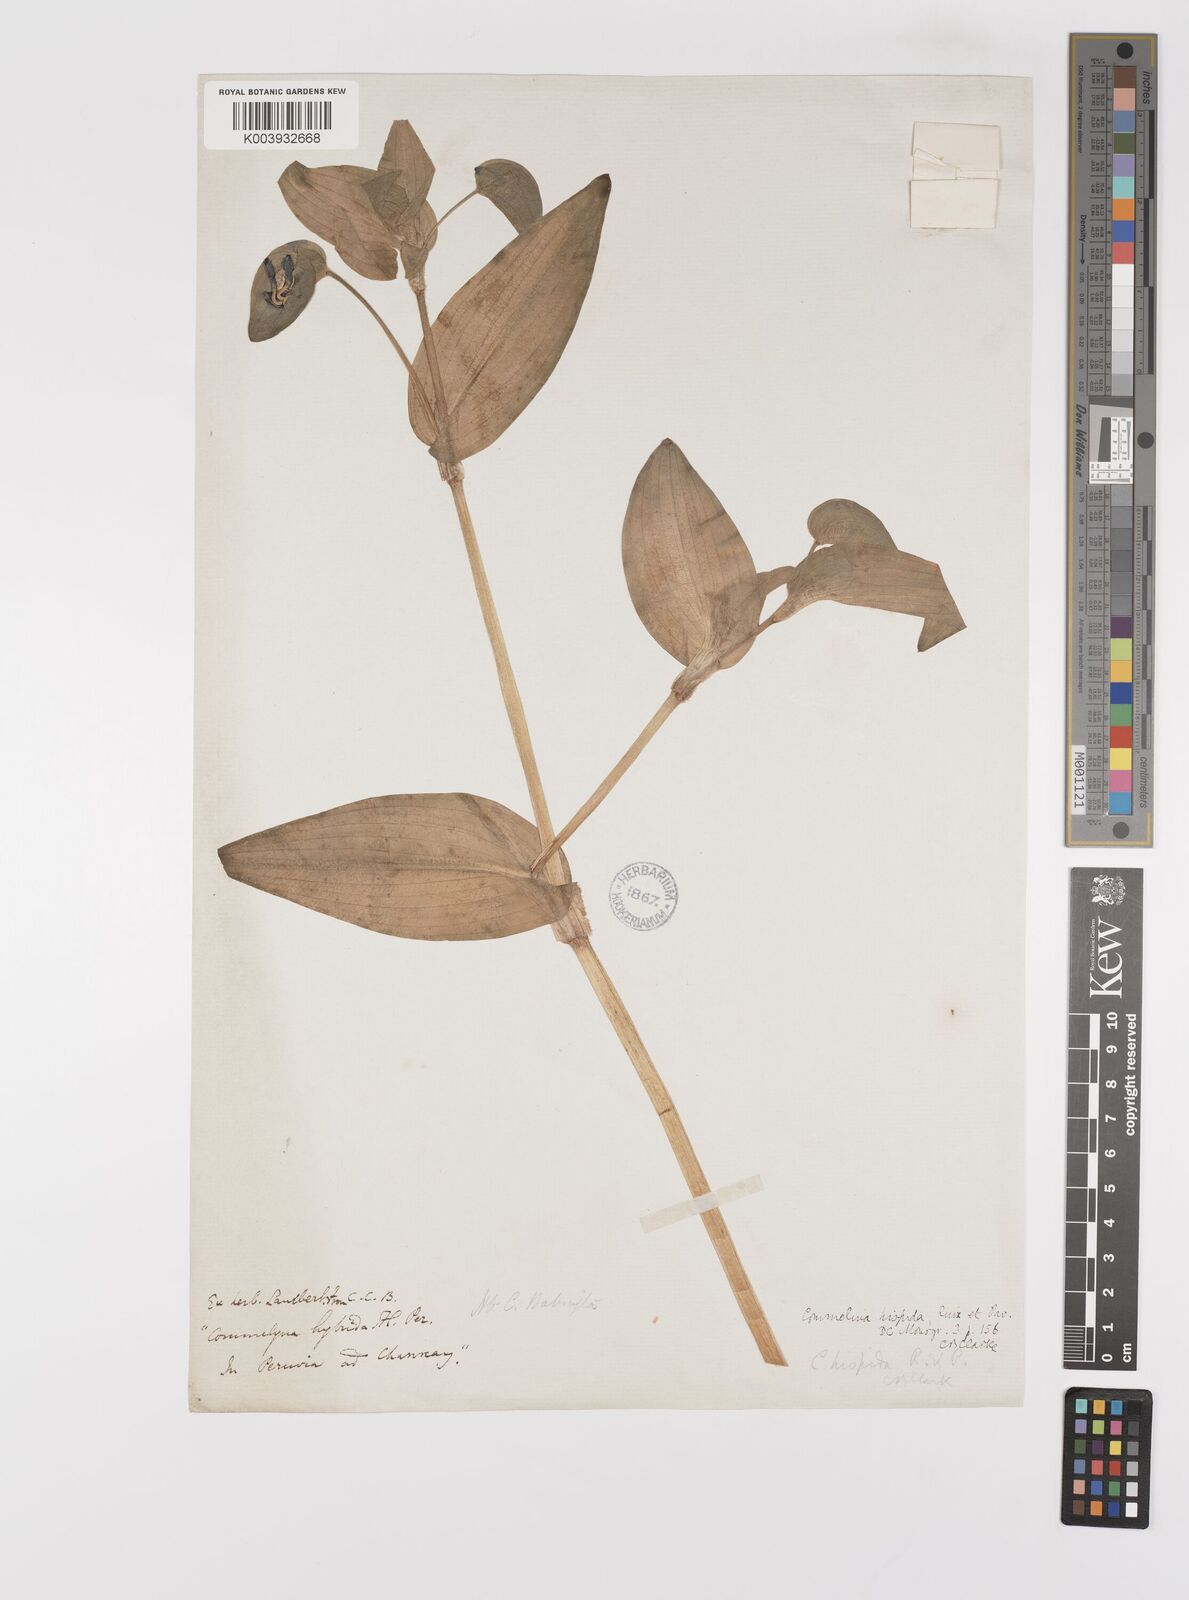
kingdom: Plantae
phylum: Tracheophyta
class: Liliopsida
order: Commelinales
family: Commelinaceae
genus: Floscopa
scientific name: Floscopa scandens
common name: Climbing flower cup
